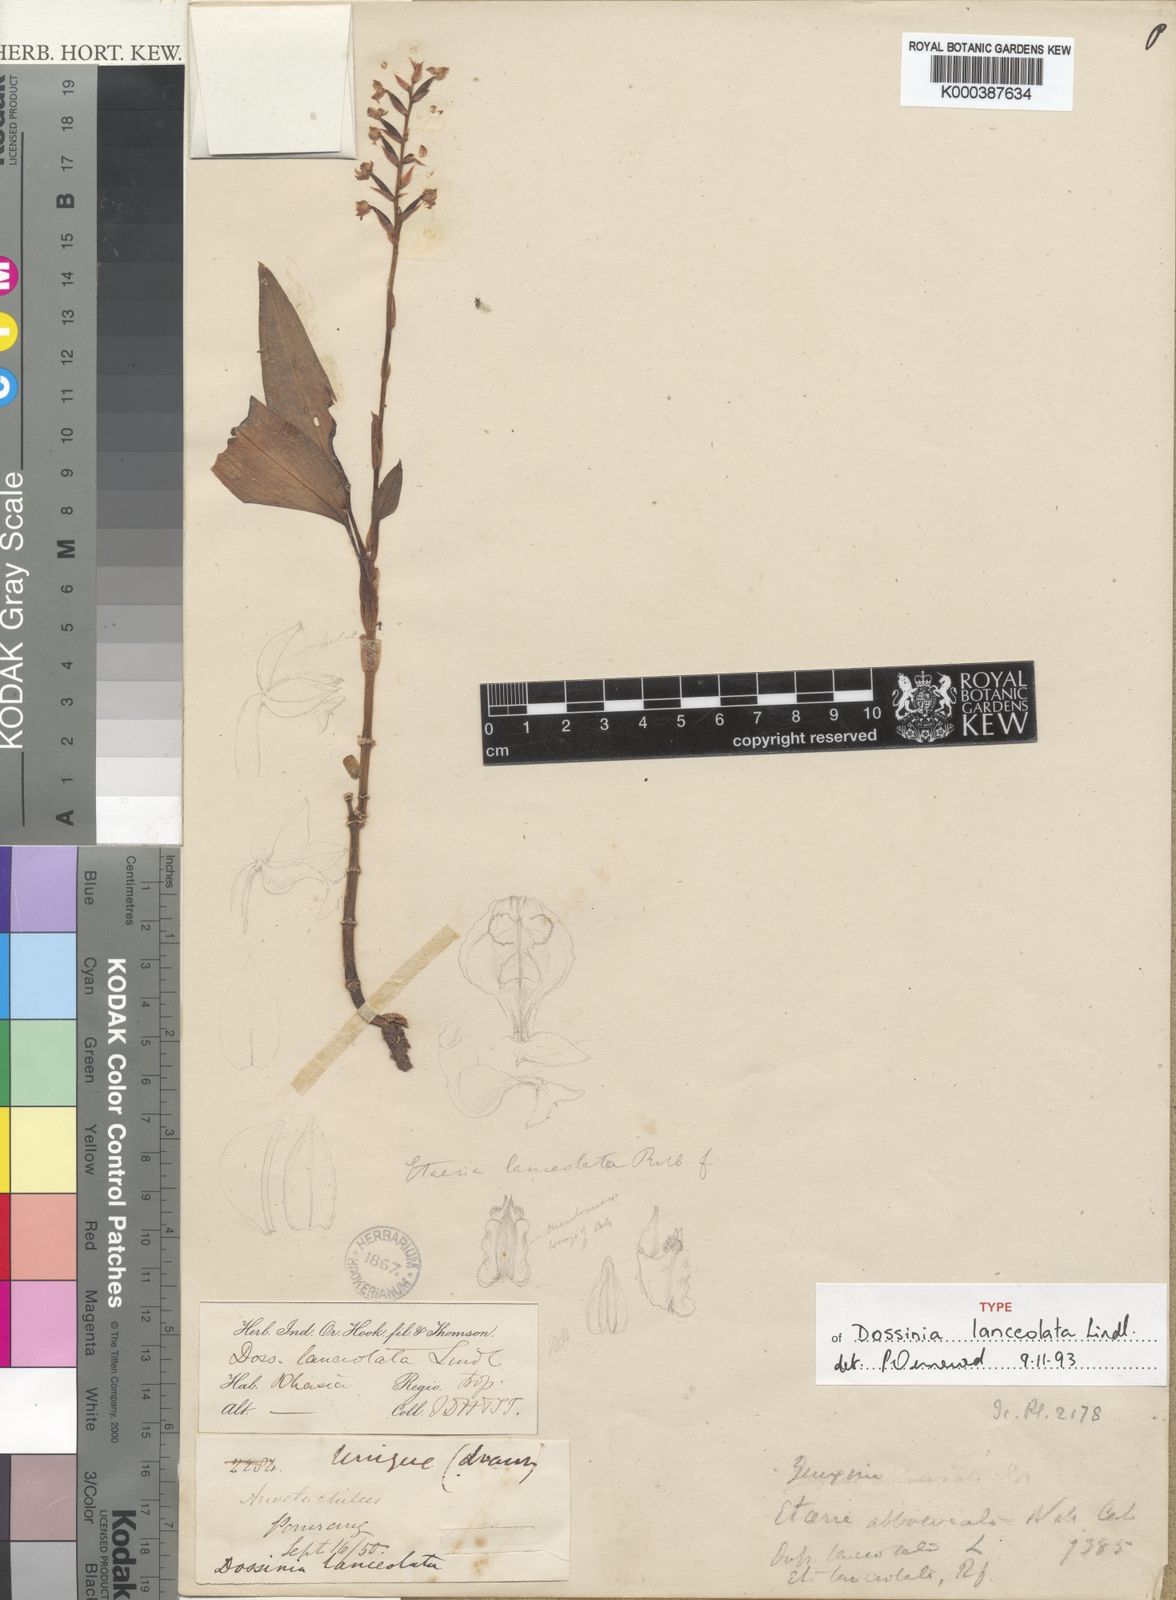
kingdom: Plantae
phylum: Tracheophyta
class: Liliopsida
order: Asparagales
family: Orchidaceae
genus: Rhomboda
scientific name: Rhomboda lanceolata
